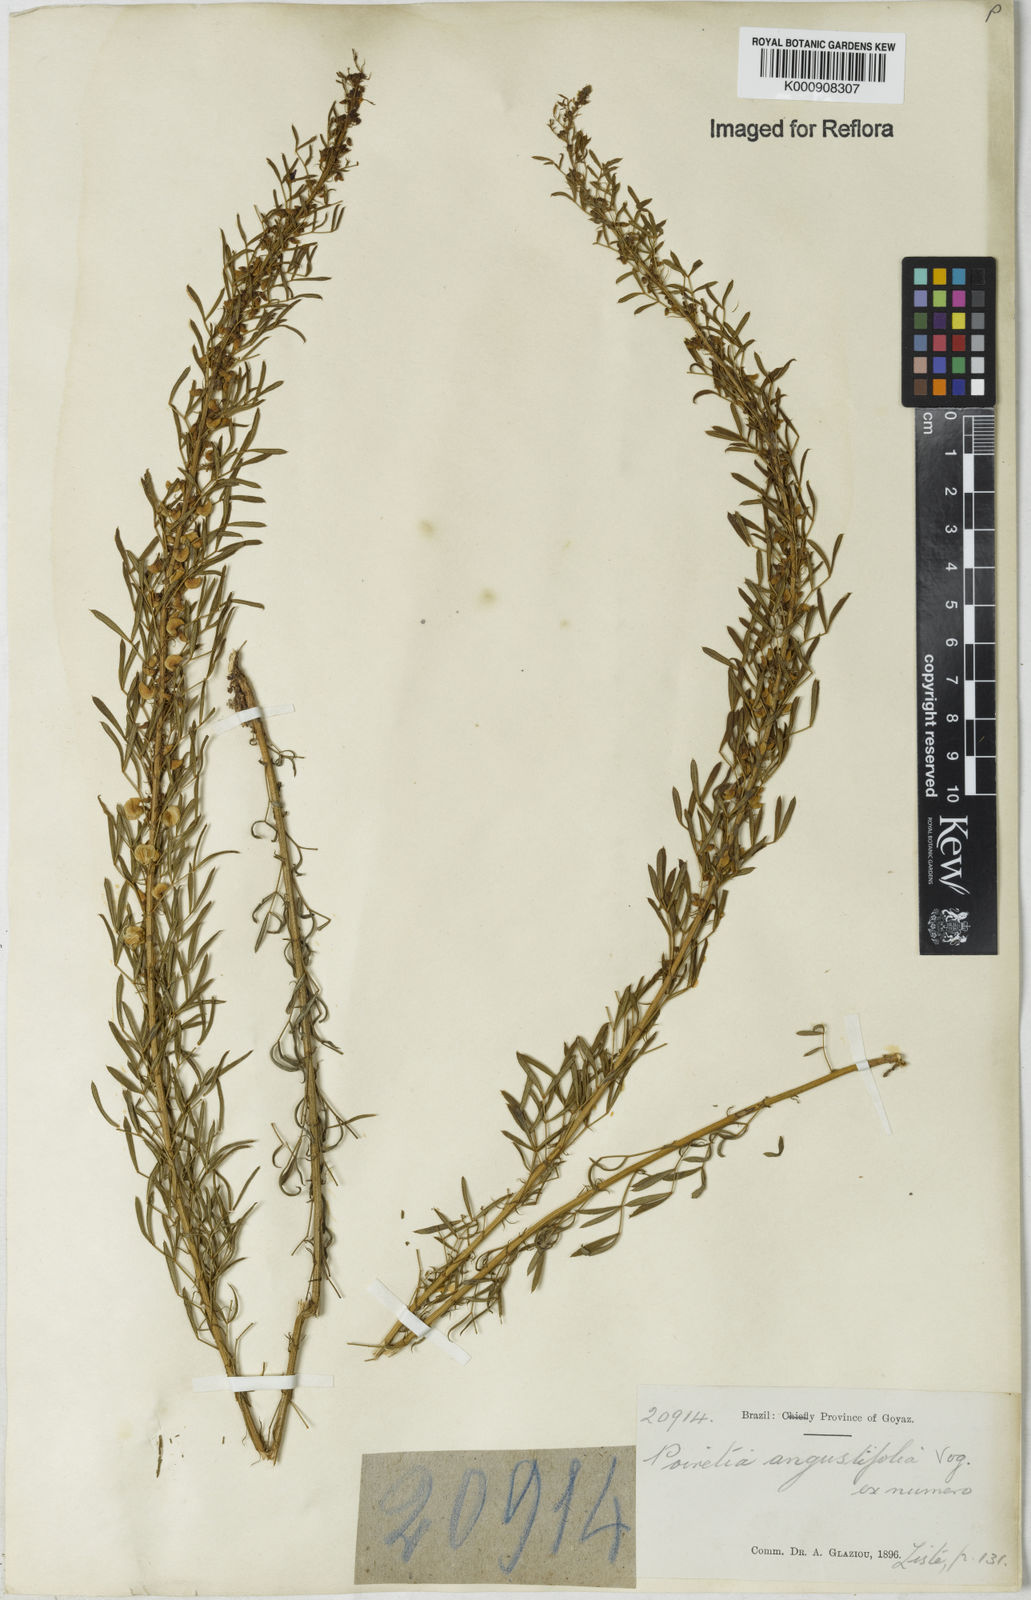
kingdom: Plantae
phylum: Tracheophyta
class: Magnoliopsida
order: Fabales
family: Fabaceae
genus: Poiretia
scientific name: Poiretia angustifolia
